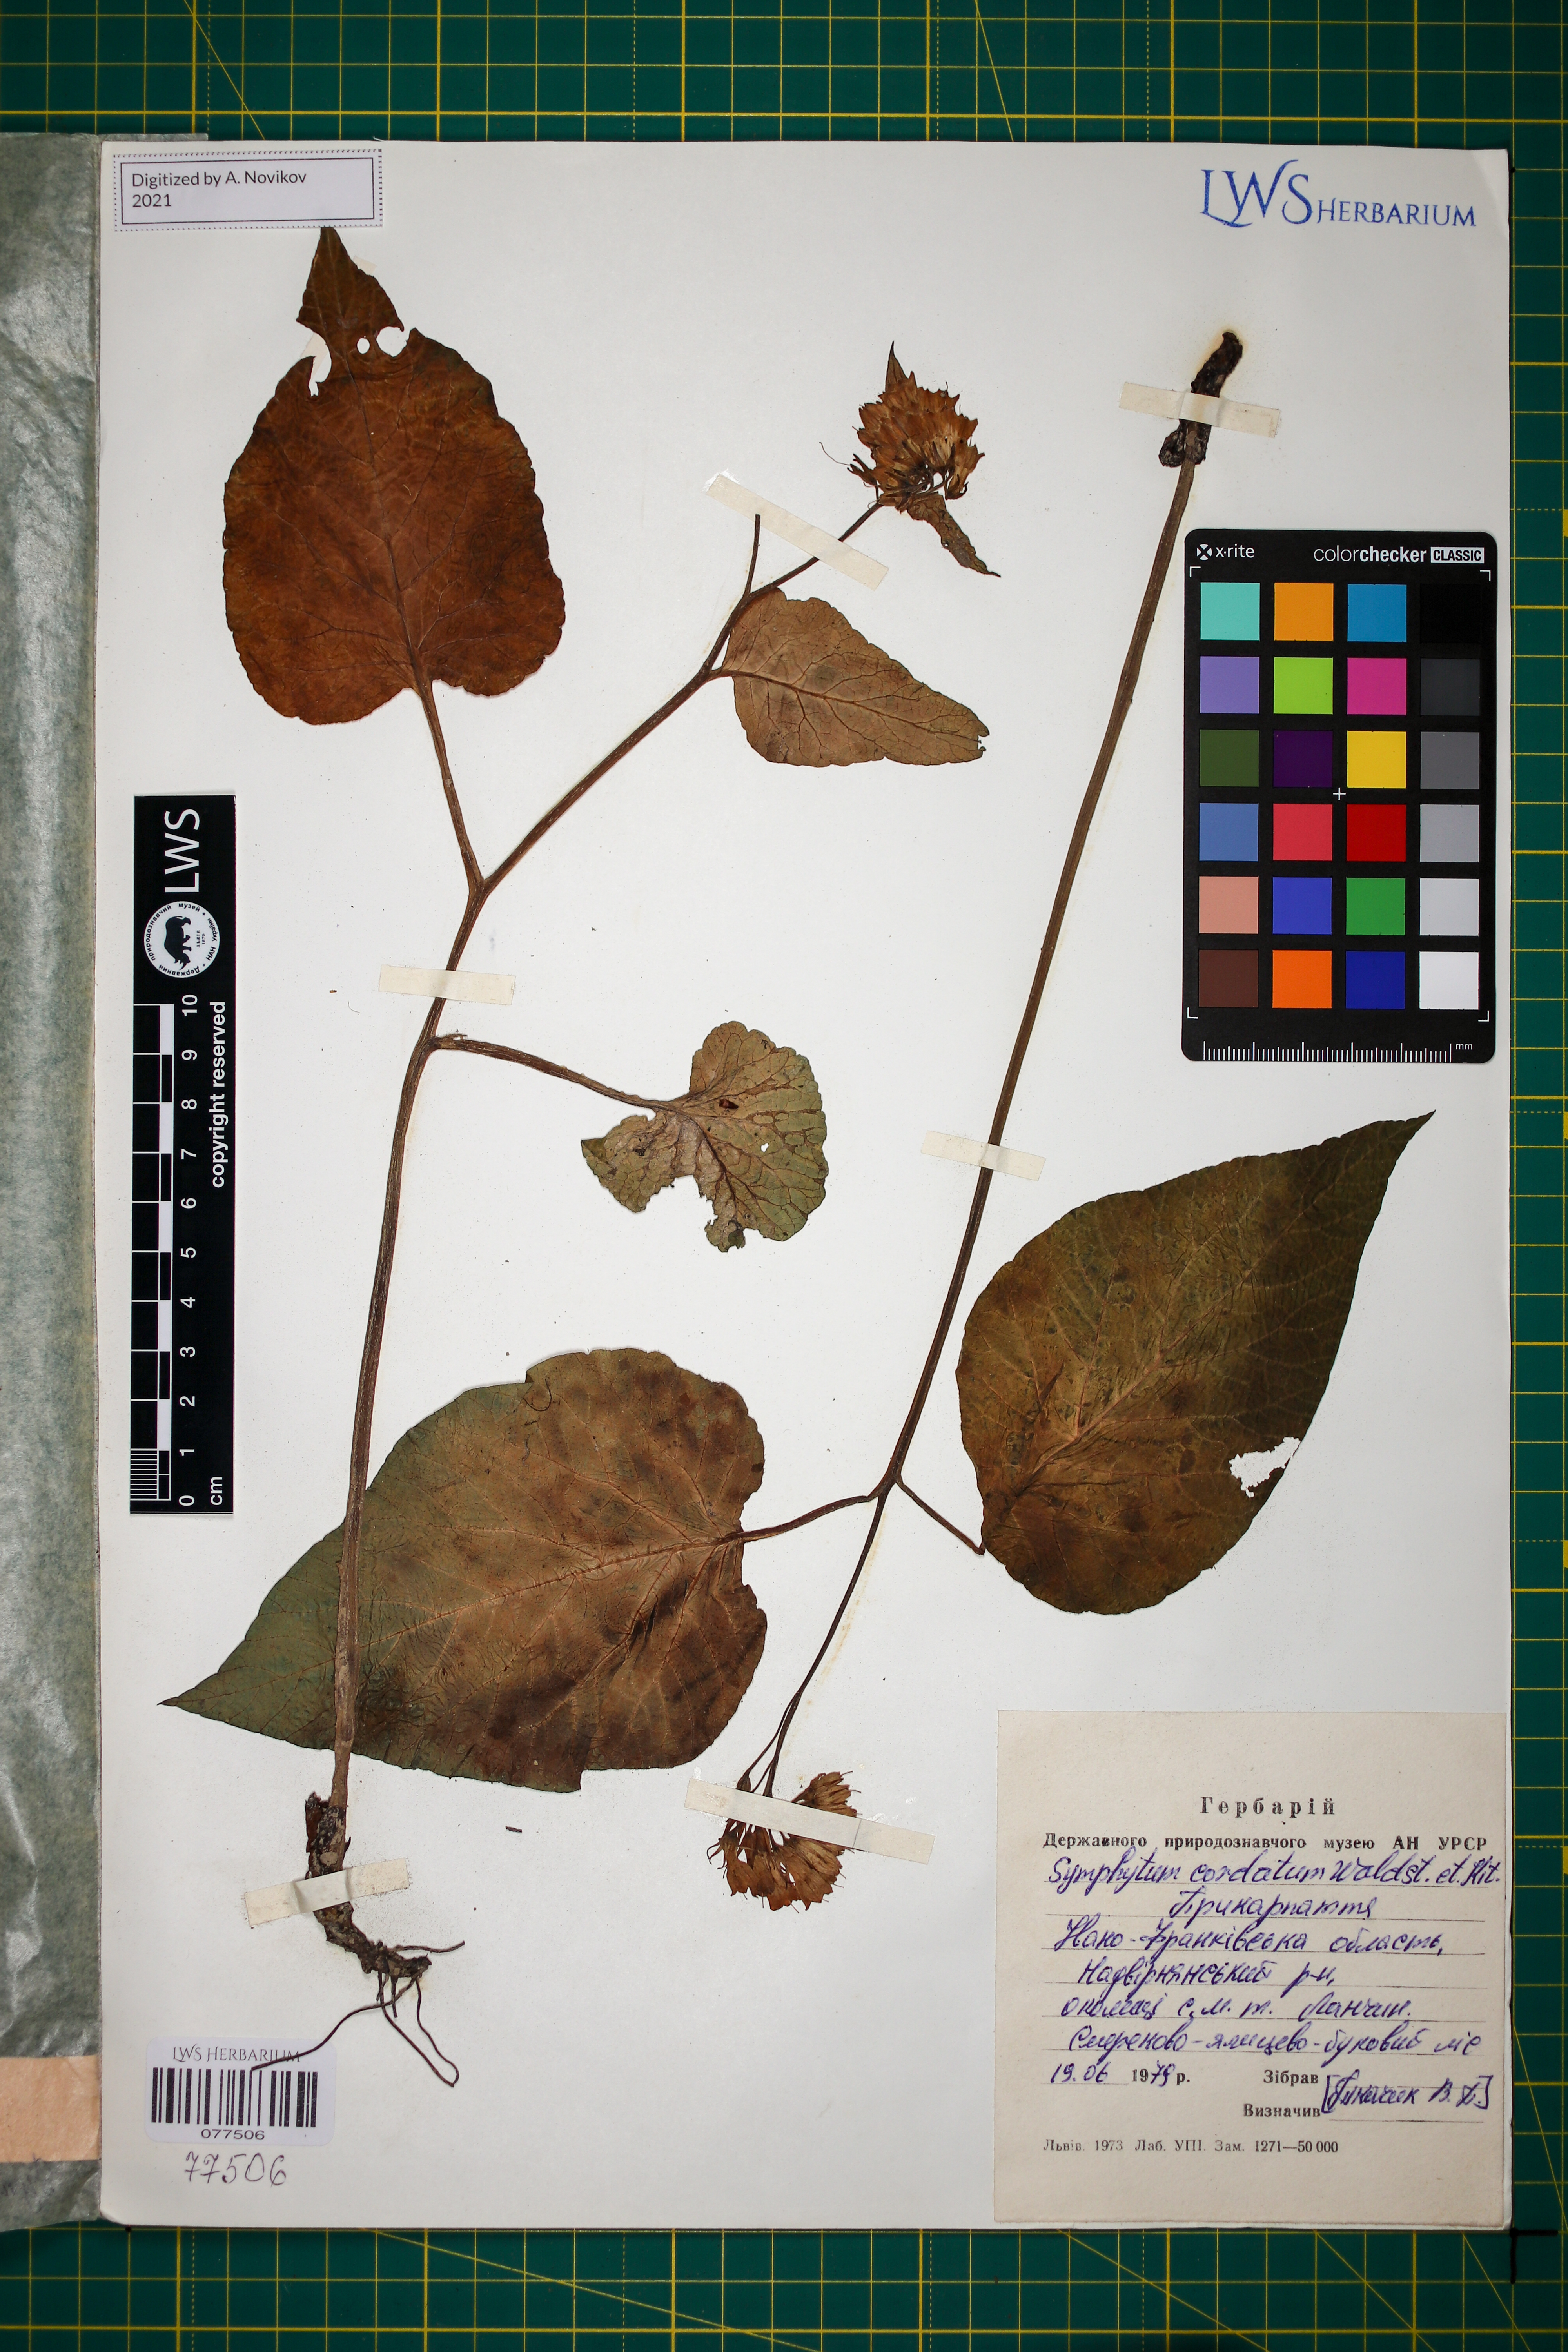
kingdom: Plantae
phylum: Tracheophyta
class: Magnoliopsida
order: Boraginales
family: Boraginaceae
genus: Symphytum
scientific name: Symphytum cordatum
